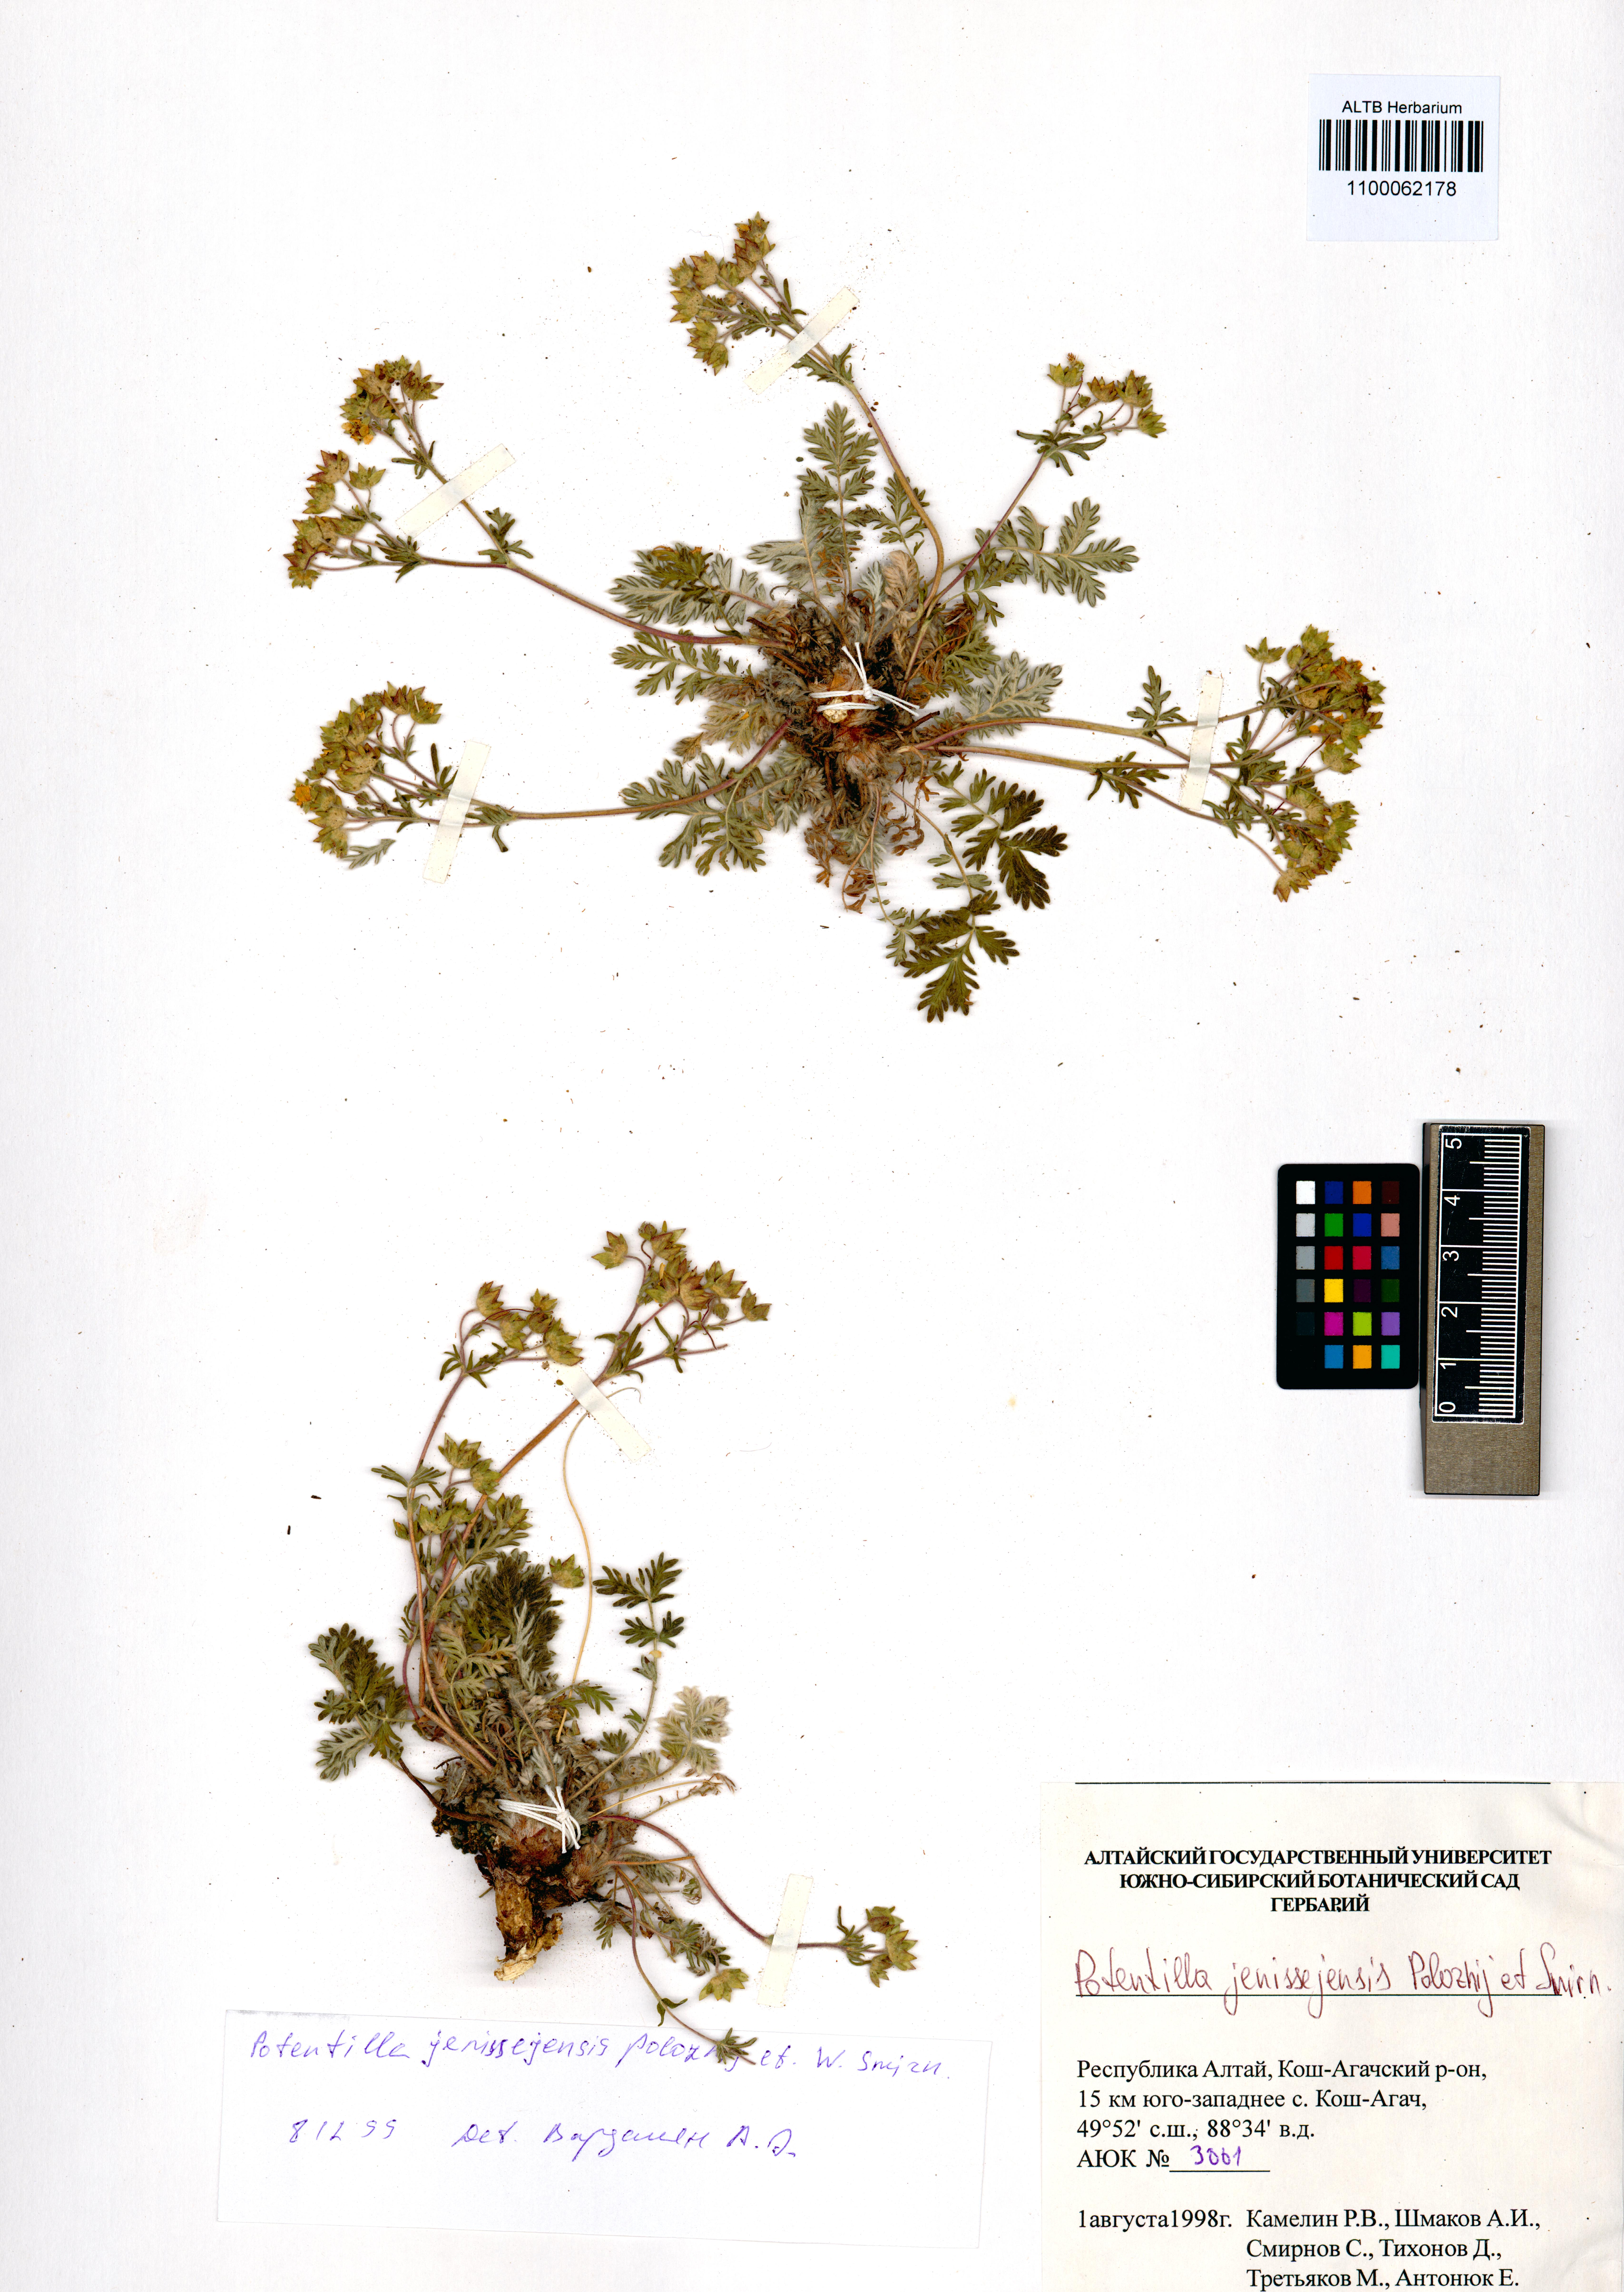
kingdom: Plantae
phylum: Tracheophyta
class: Magnoliopsida
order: Rosales
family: Rosaceae
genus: Potentilla
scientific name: Potentilla jenissejensis
